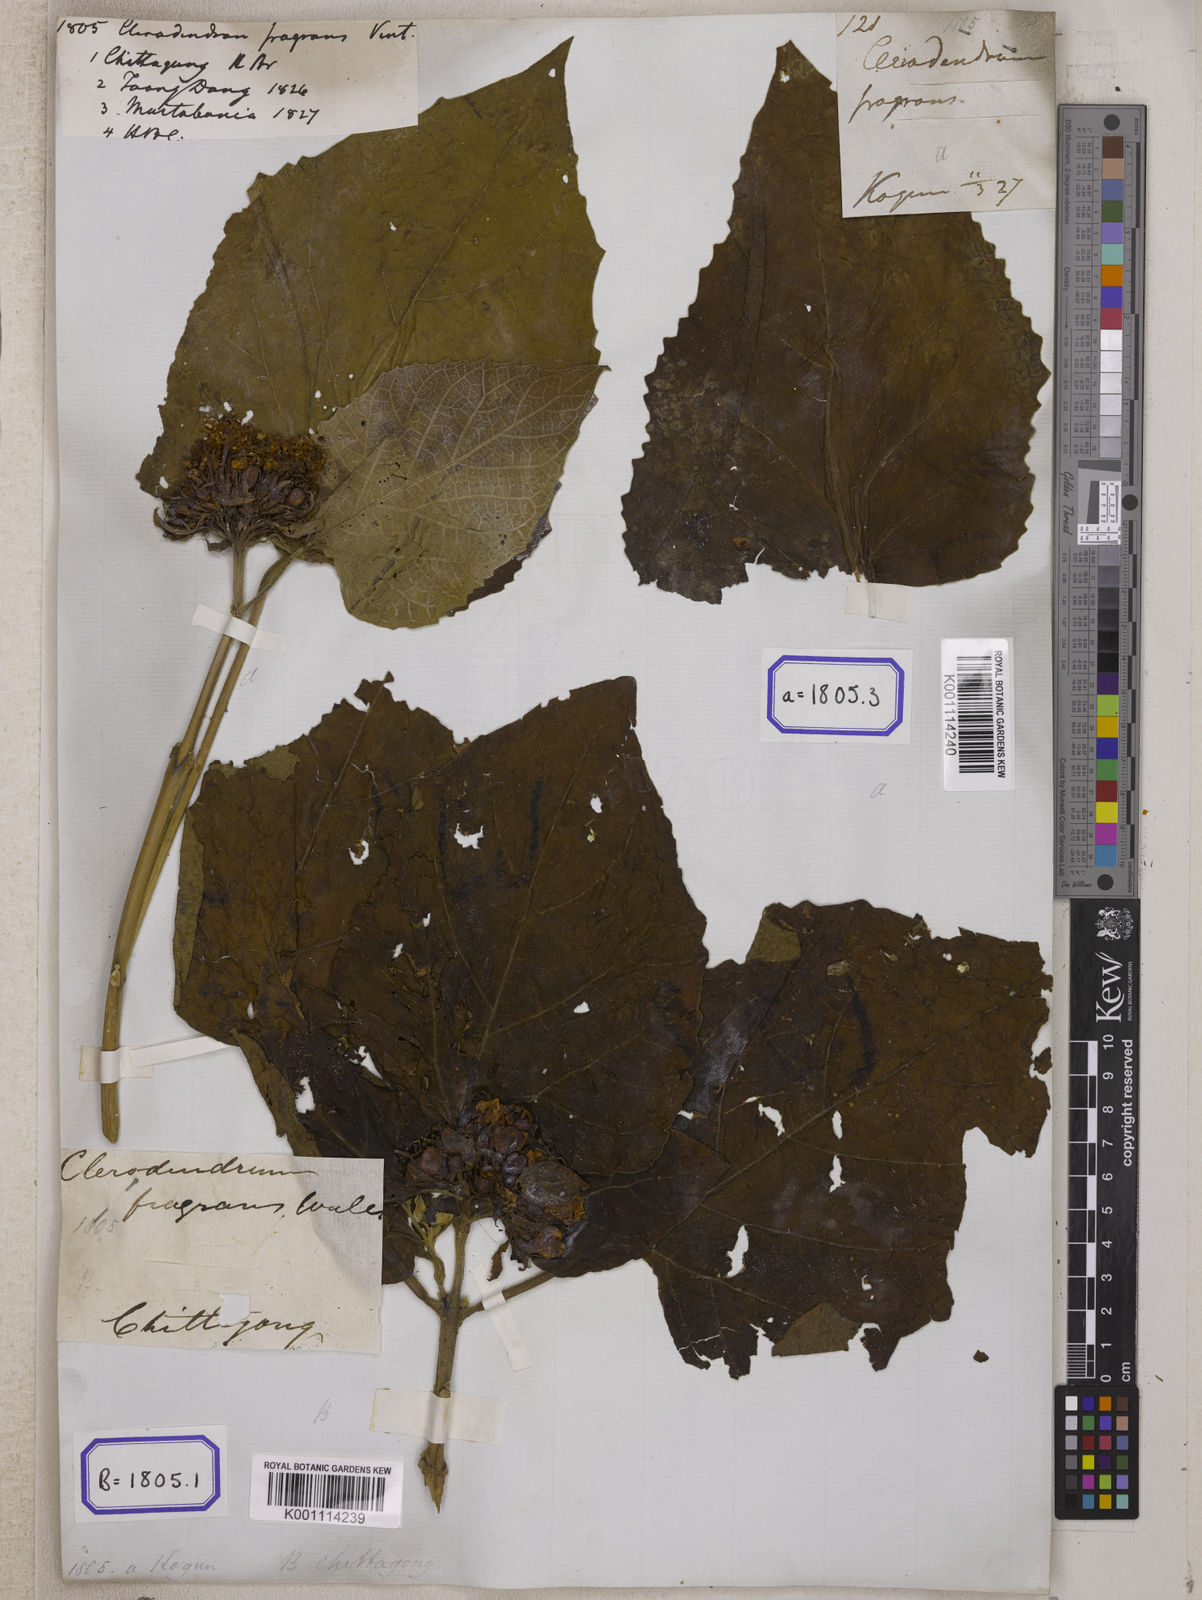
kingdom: Plantae
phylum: Tracheophyta
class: Magnoliopsida
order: Lamiales
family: Lamiaceae
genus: Clerodendrum
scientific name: Clerodendrum
